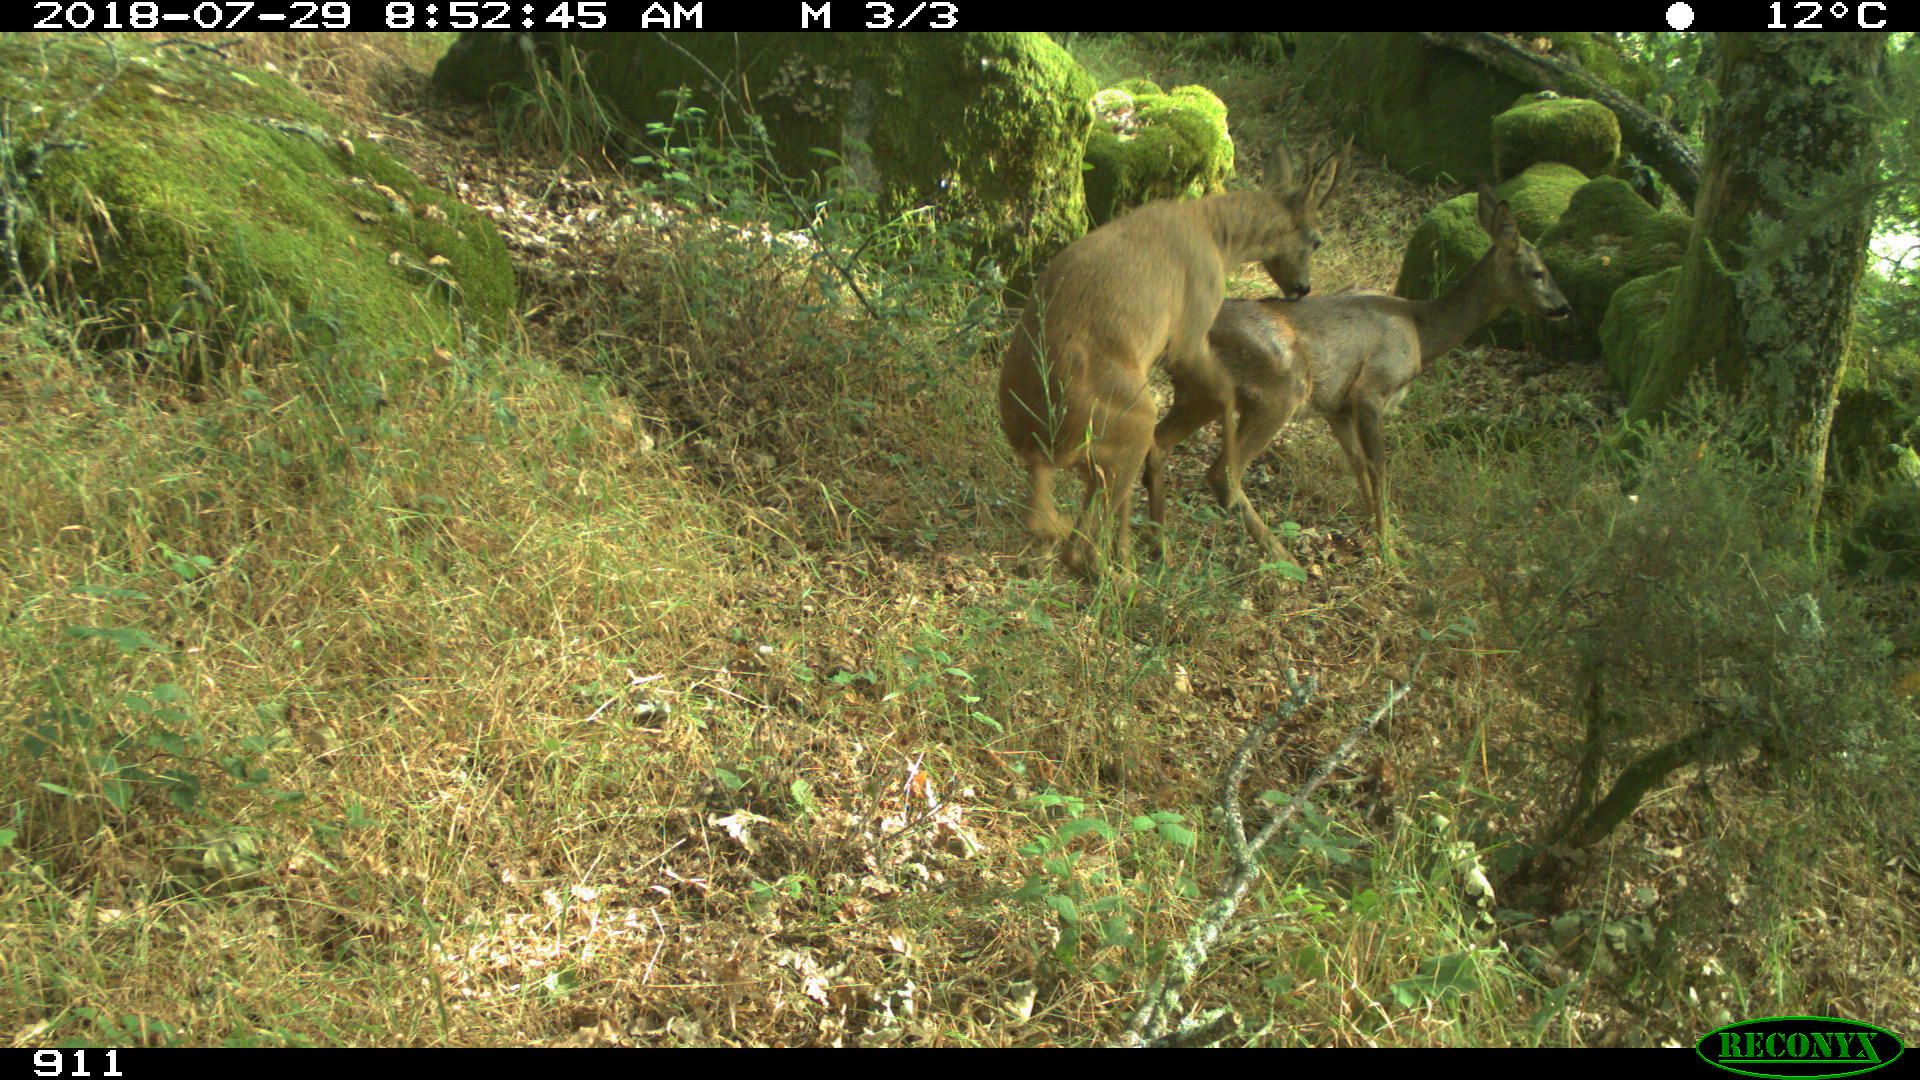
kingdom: Animalia
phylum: Chordata
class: Mammalia
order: Artiodactyla
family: Cervidae
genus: Capreolus
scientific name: Capreolus capreolus
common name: Western roe deer
